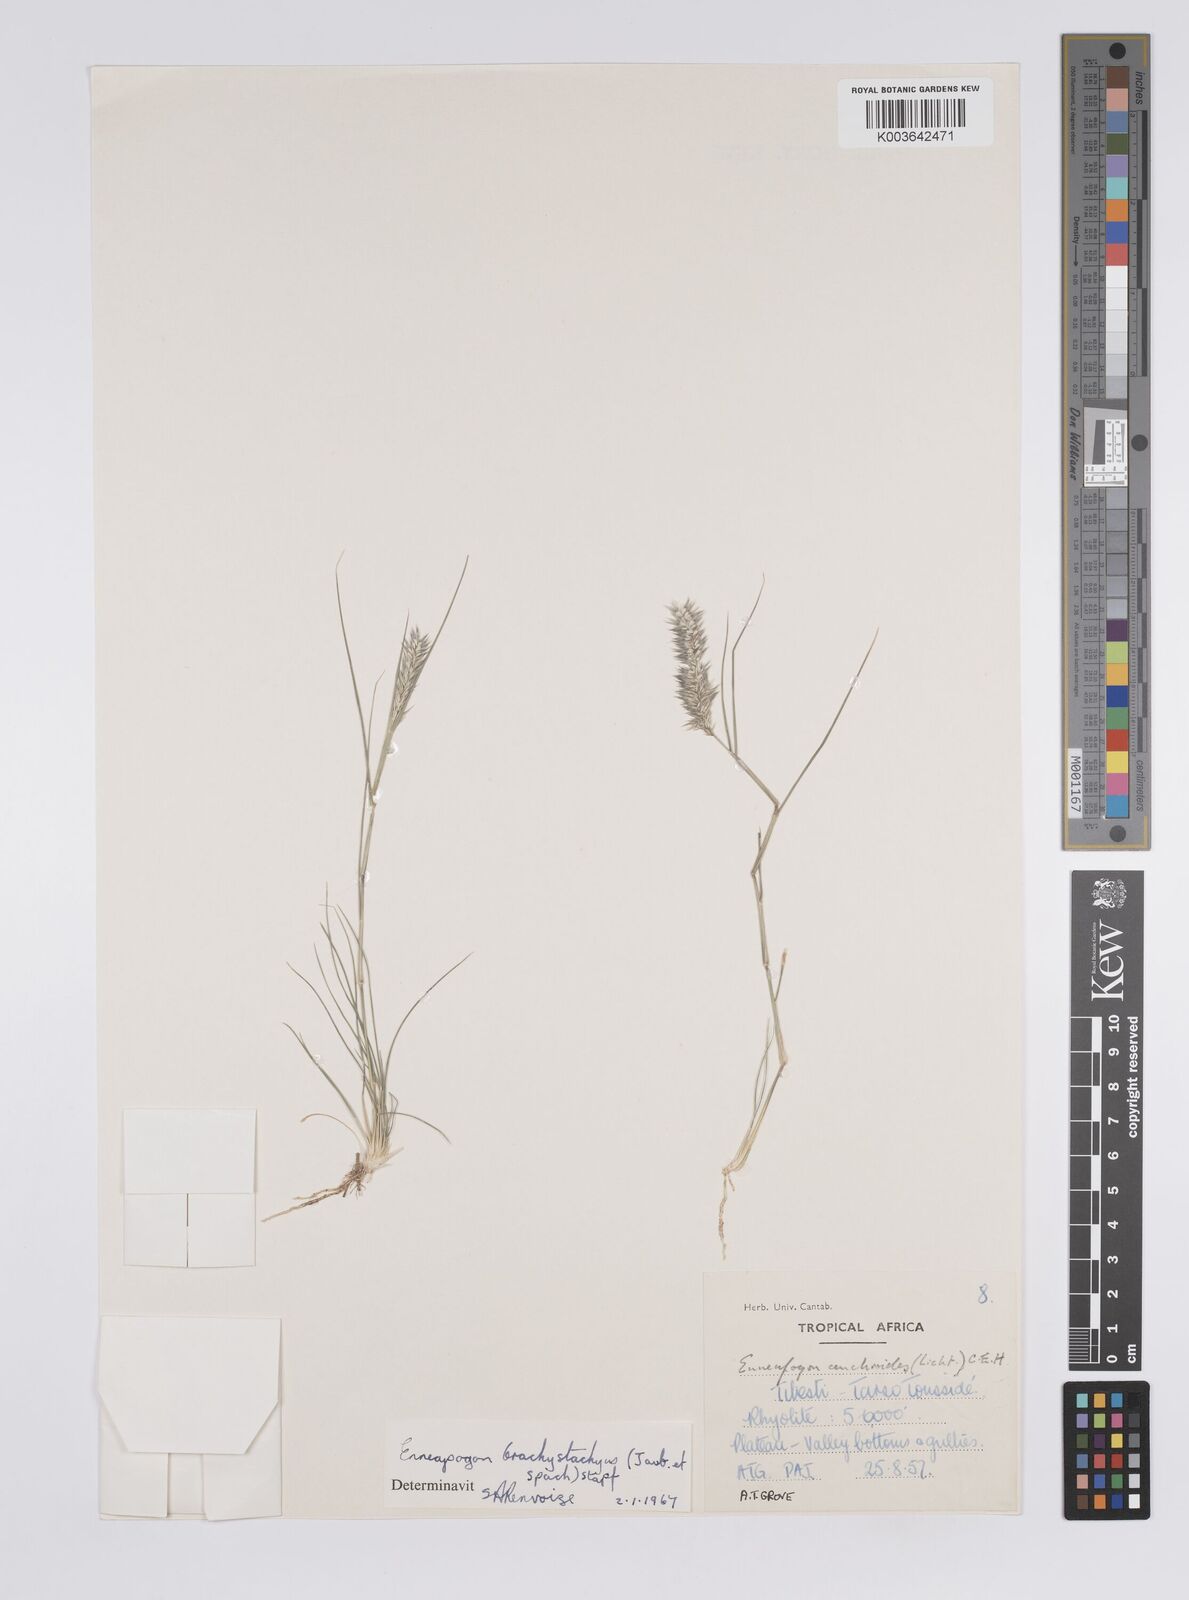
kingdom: Plantae
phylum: Tracheophyta
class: Liliopsida
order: Poales
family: Poaceae
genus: Enneapogon
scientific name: Enneapogon desvauxii
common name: Feather pappus grass
